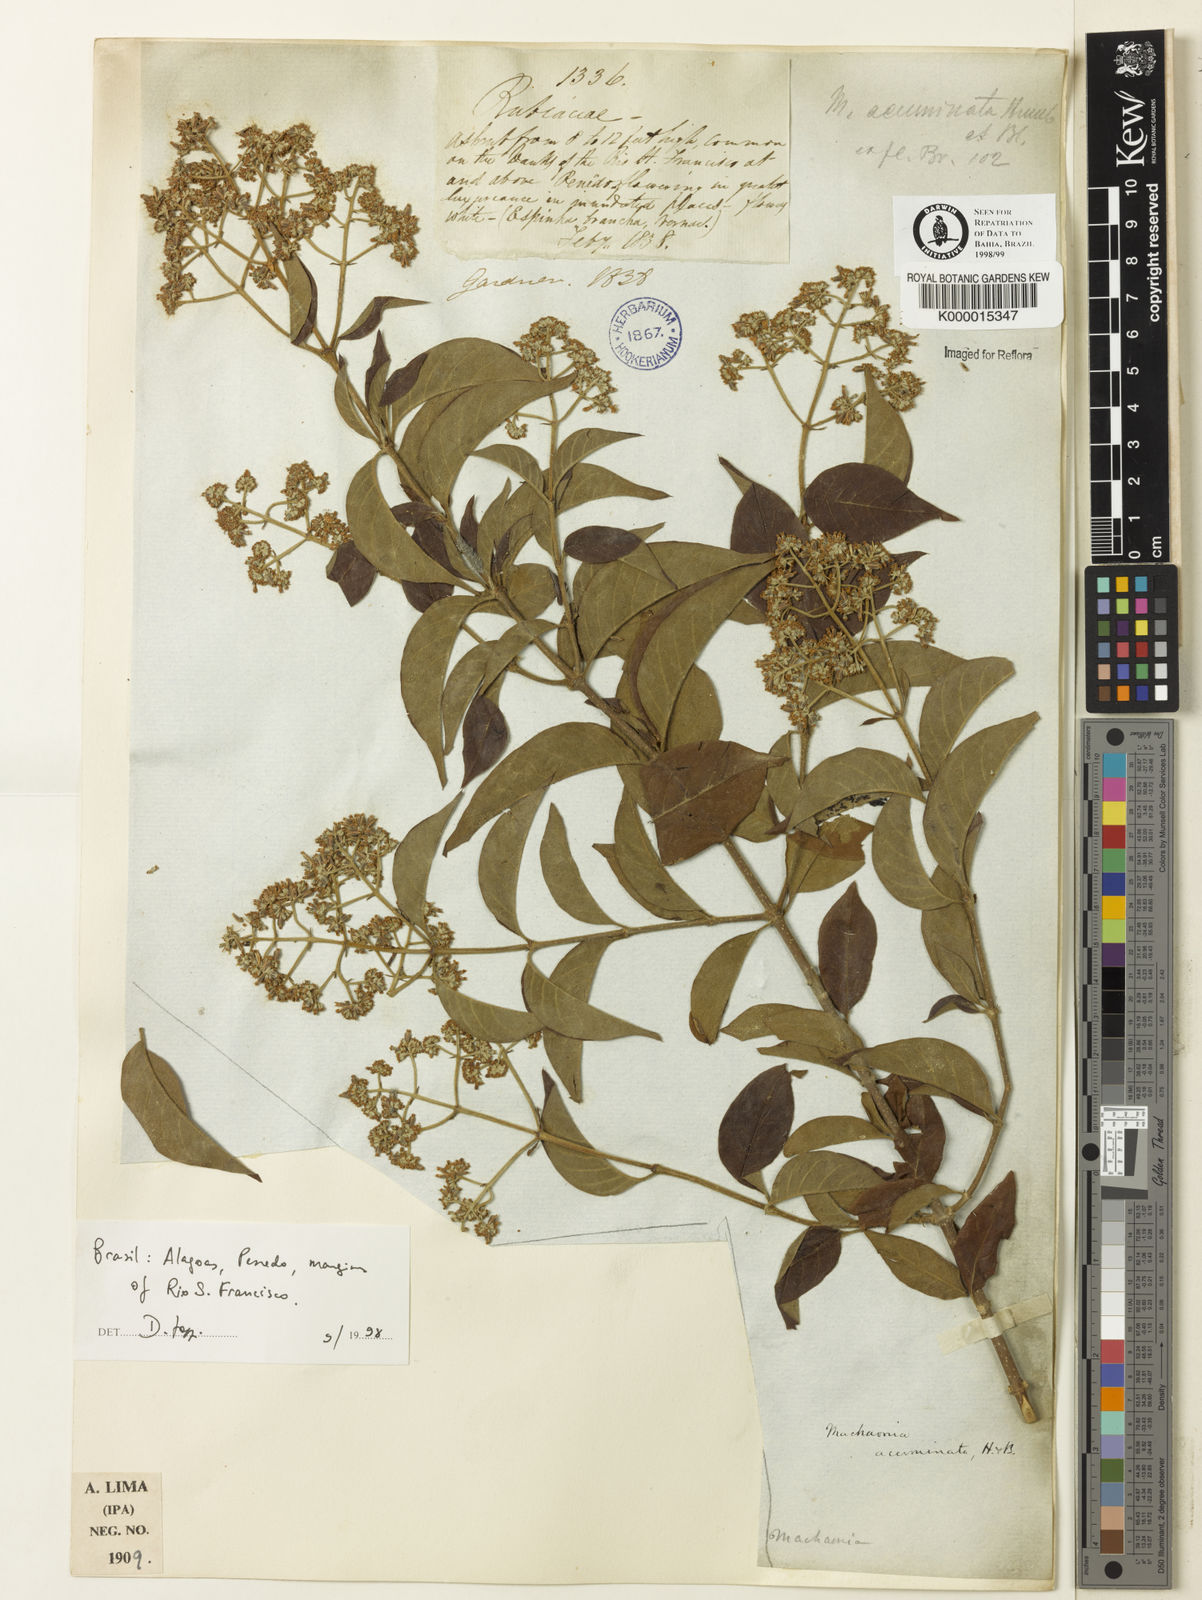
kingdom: Plantae
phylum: Tracheophyta
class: Magnoliopsida
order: Gentianales
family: Rubiaceae
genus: Machaonia
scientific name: Machaonia
